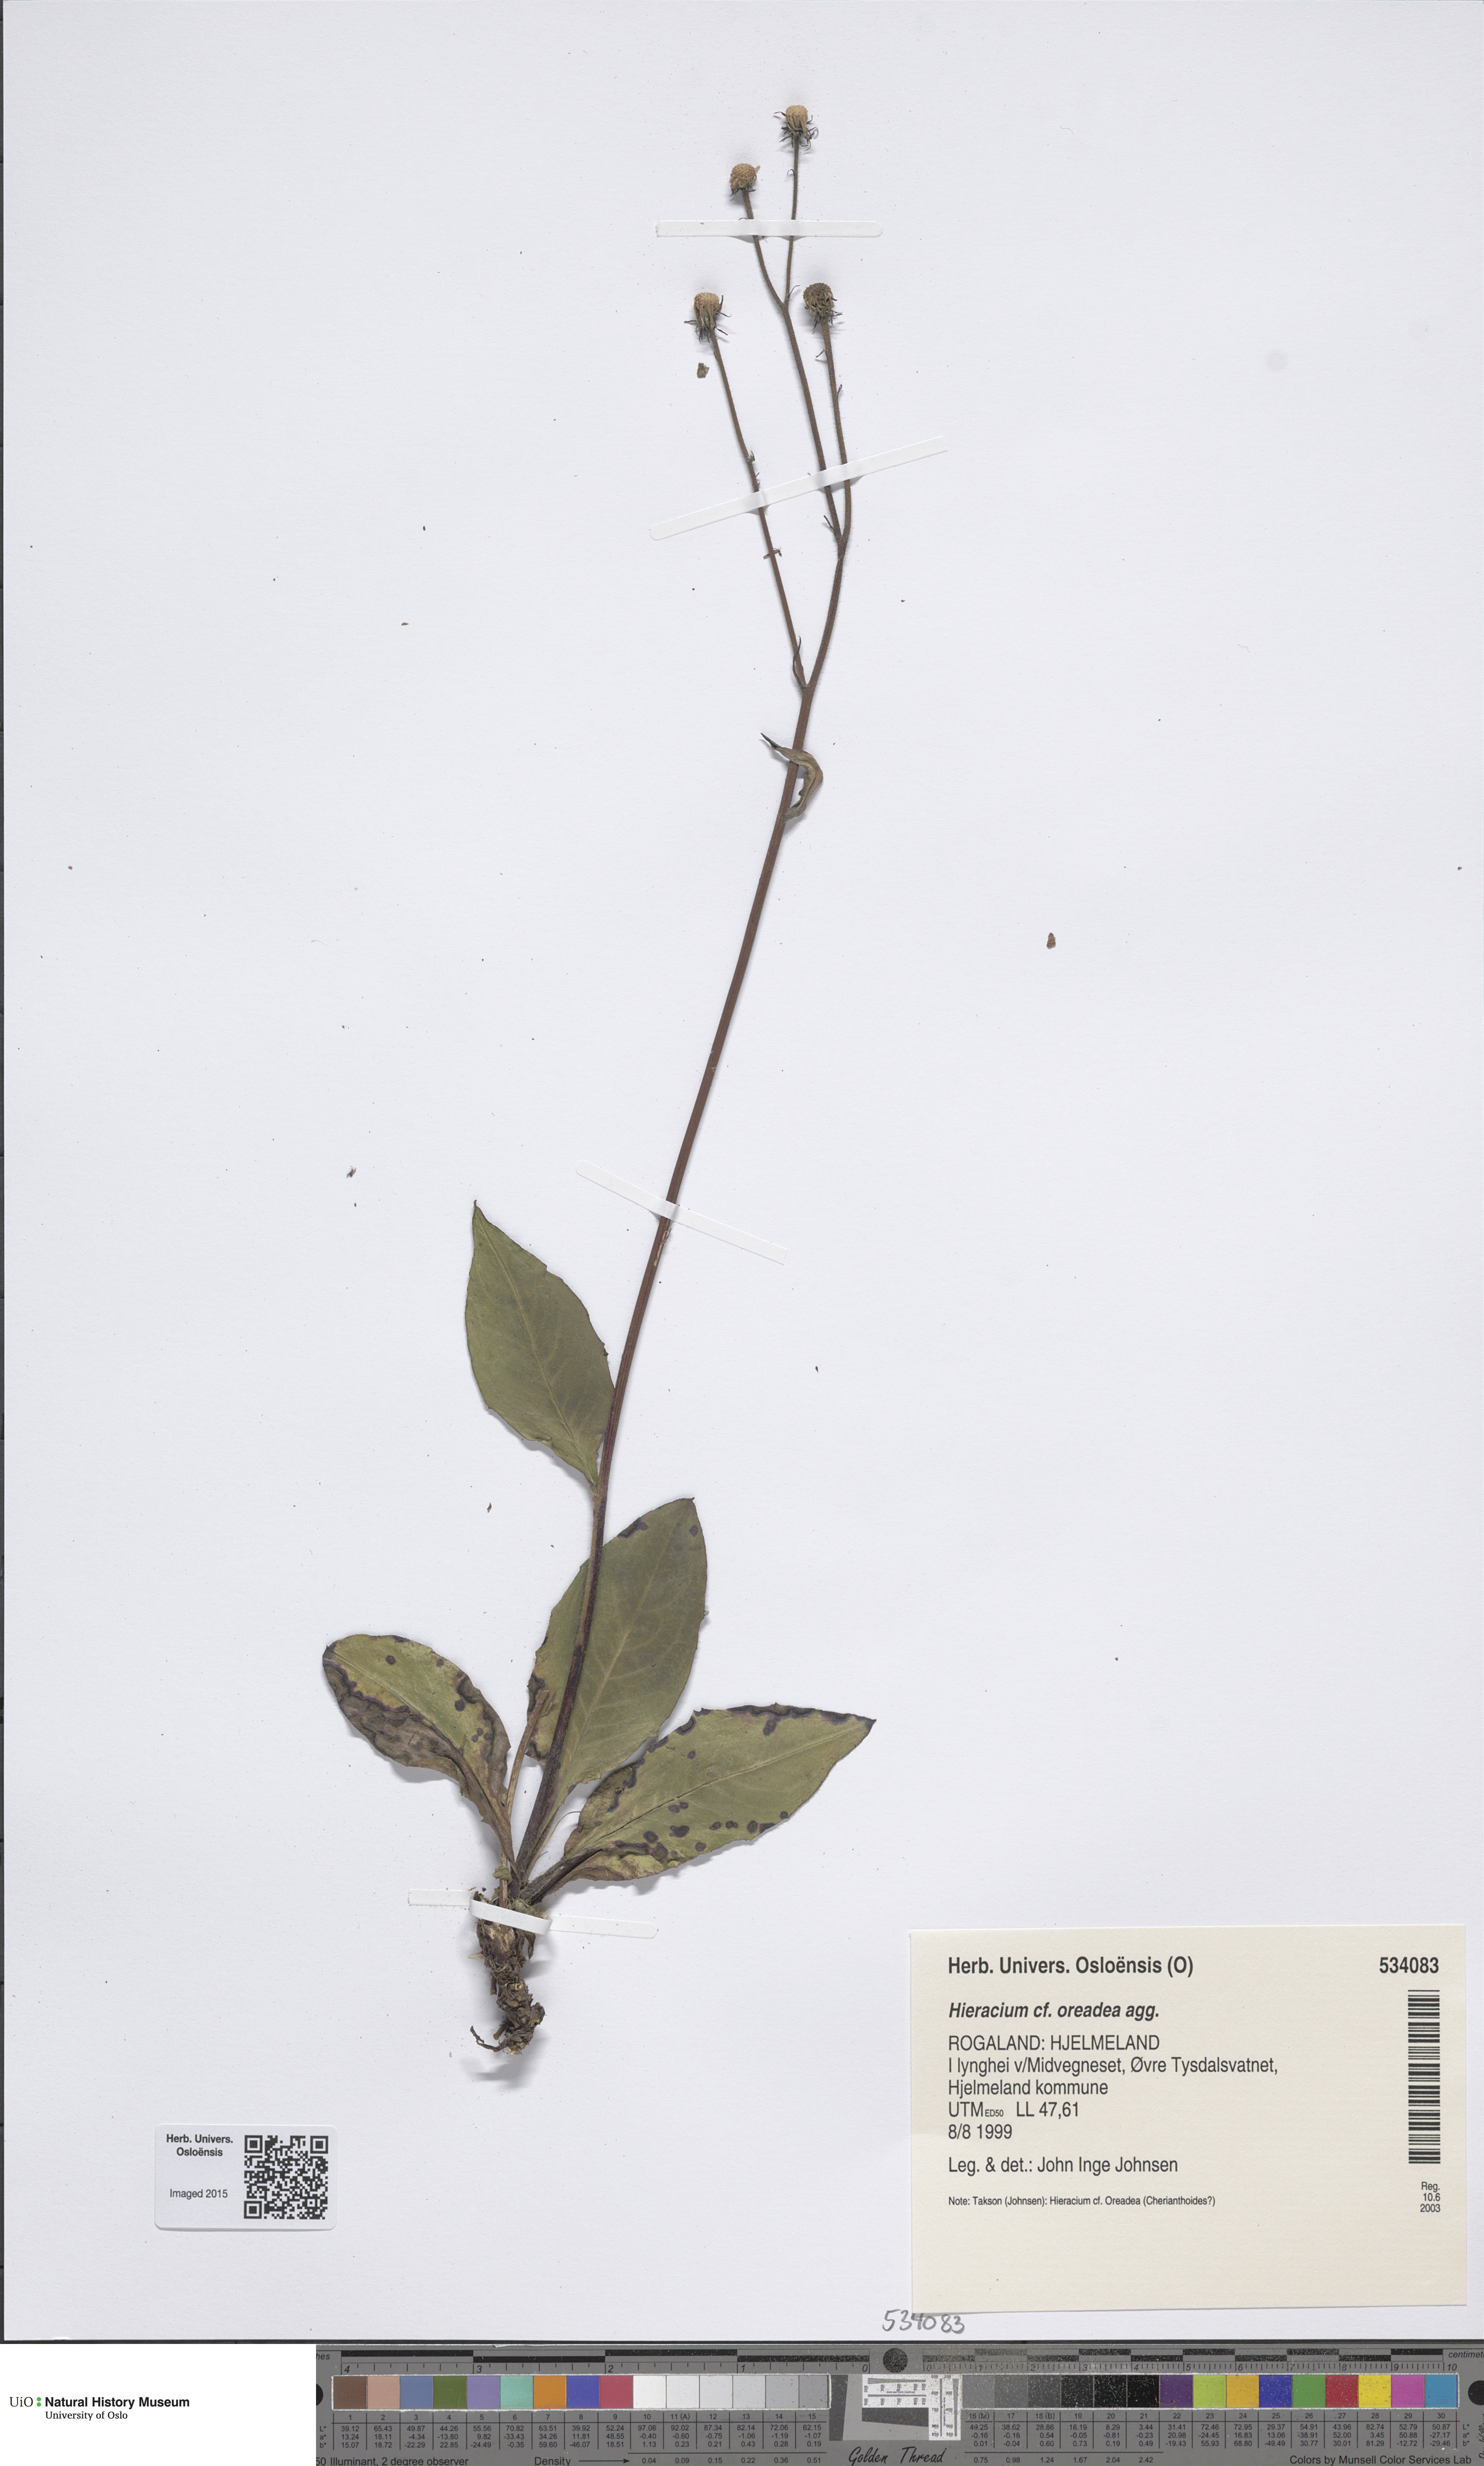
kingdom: Plantae
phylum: Tracheophyta
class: Magnoliopsida
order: Asterales
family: Asteraceae
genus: Hieracium
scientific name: Hieracium
